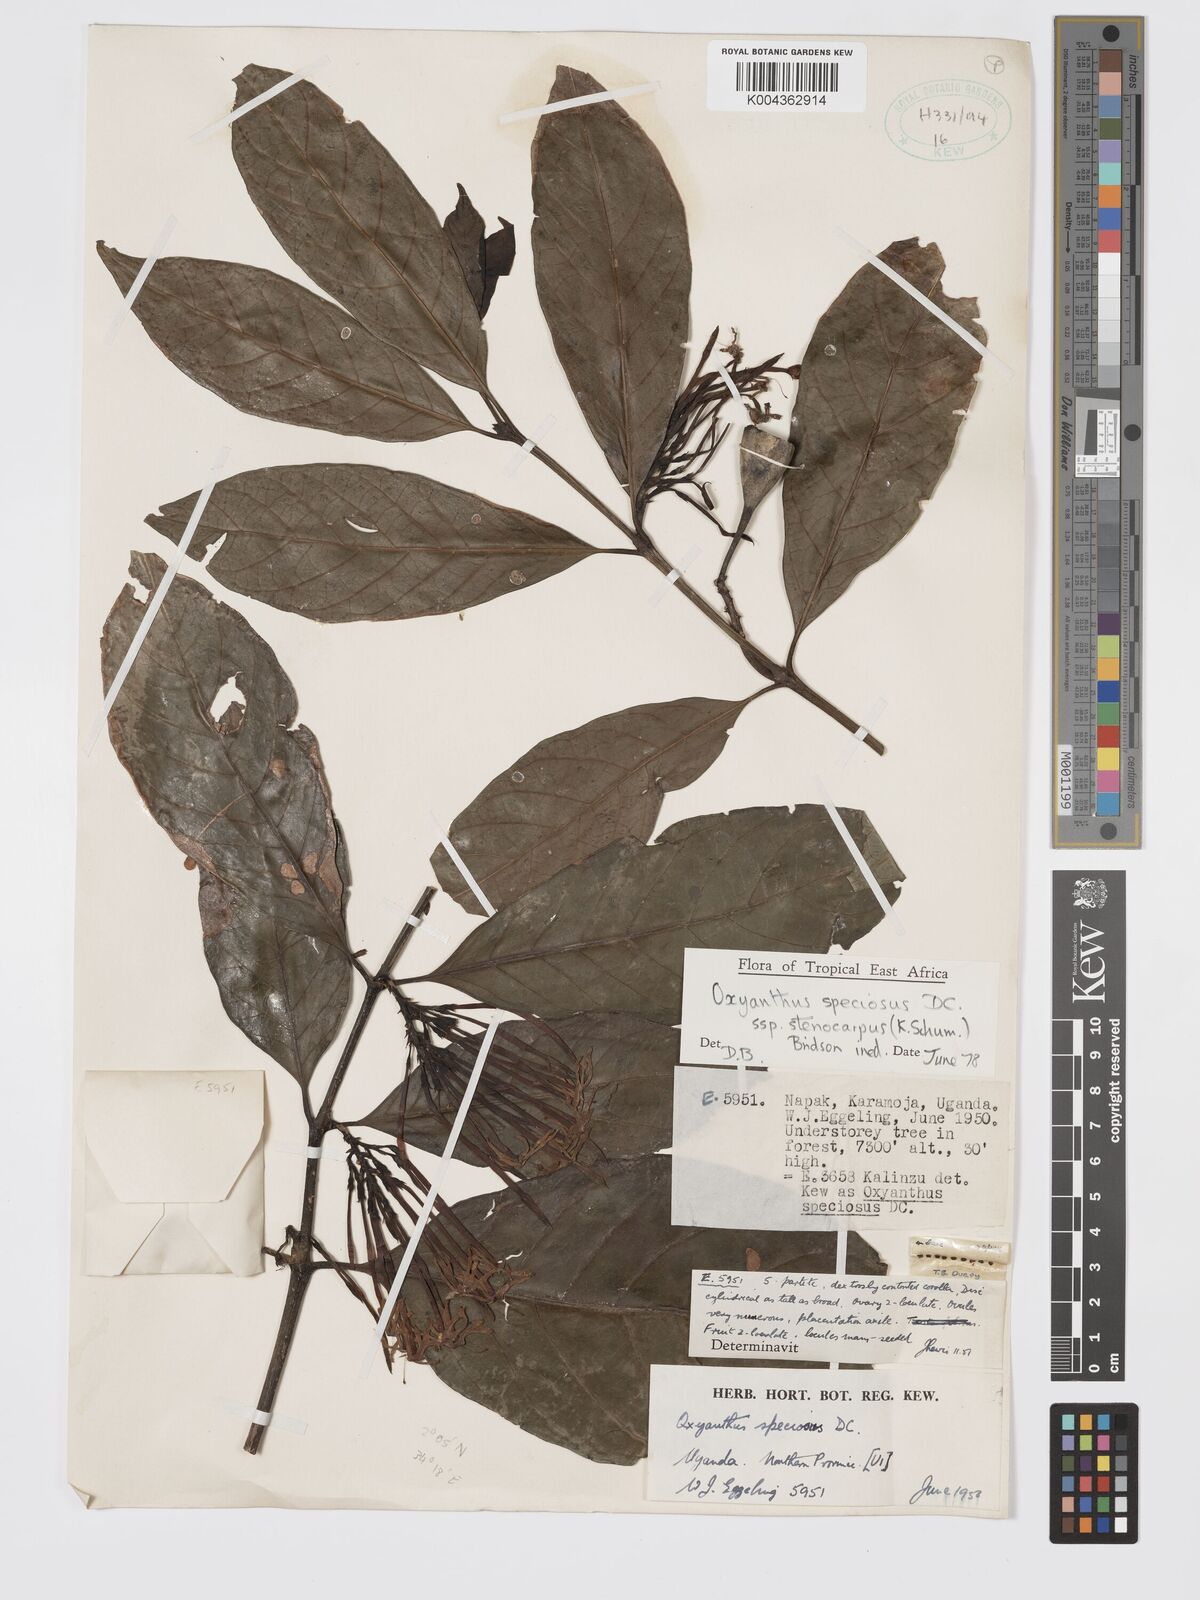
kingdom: Plantae
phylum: Tracheophyta
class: Magnoliopsida
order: Gentianales
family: Rubiaceae
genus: Oxyanthus
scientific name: Oxyanthus
